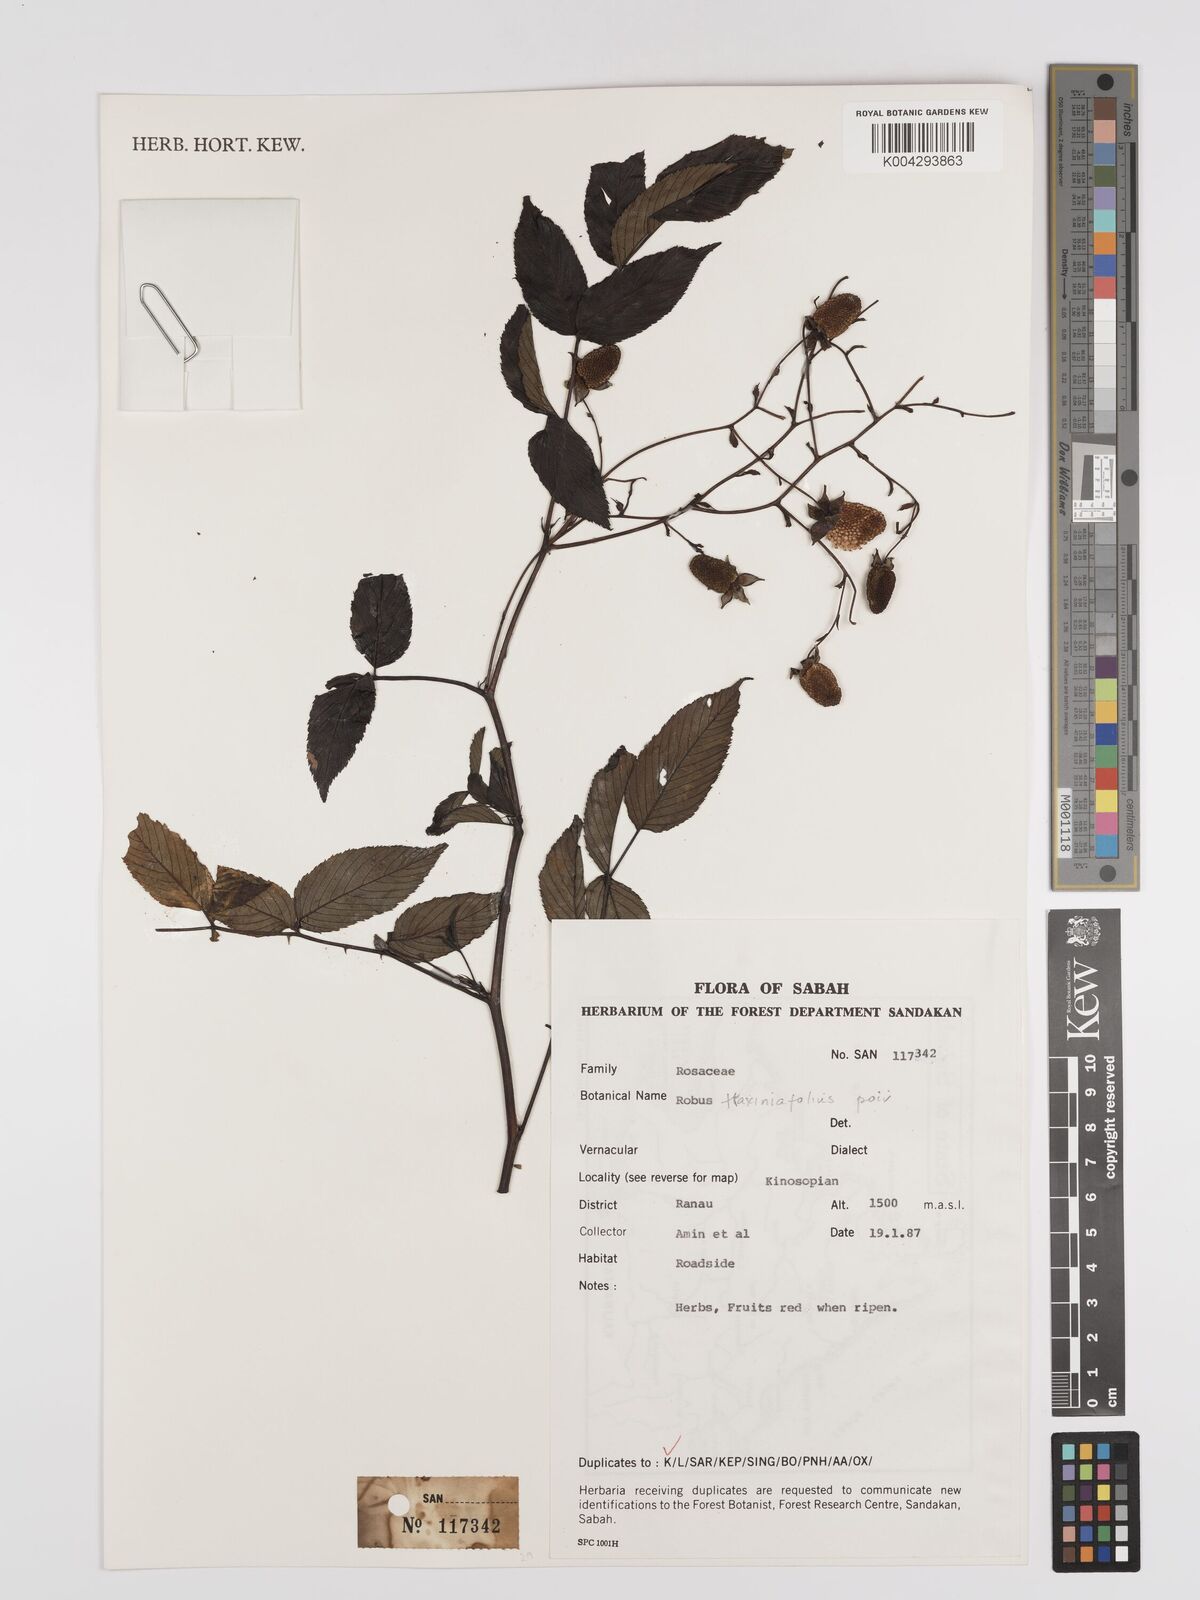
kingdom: Plantae
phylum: Tracheophyta
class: Magnoliopsida
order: Rosales
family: Rosaceae
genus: Rubus
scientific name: Rubus fraxinifolius
